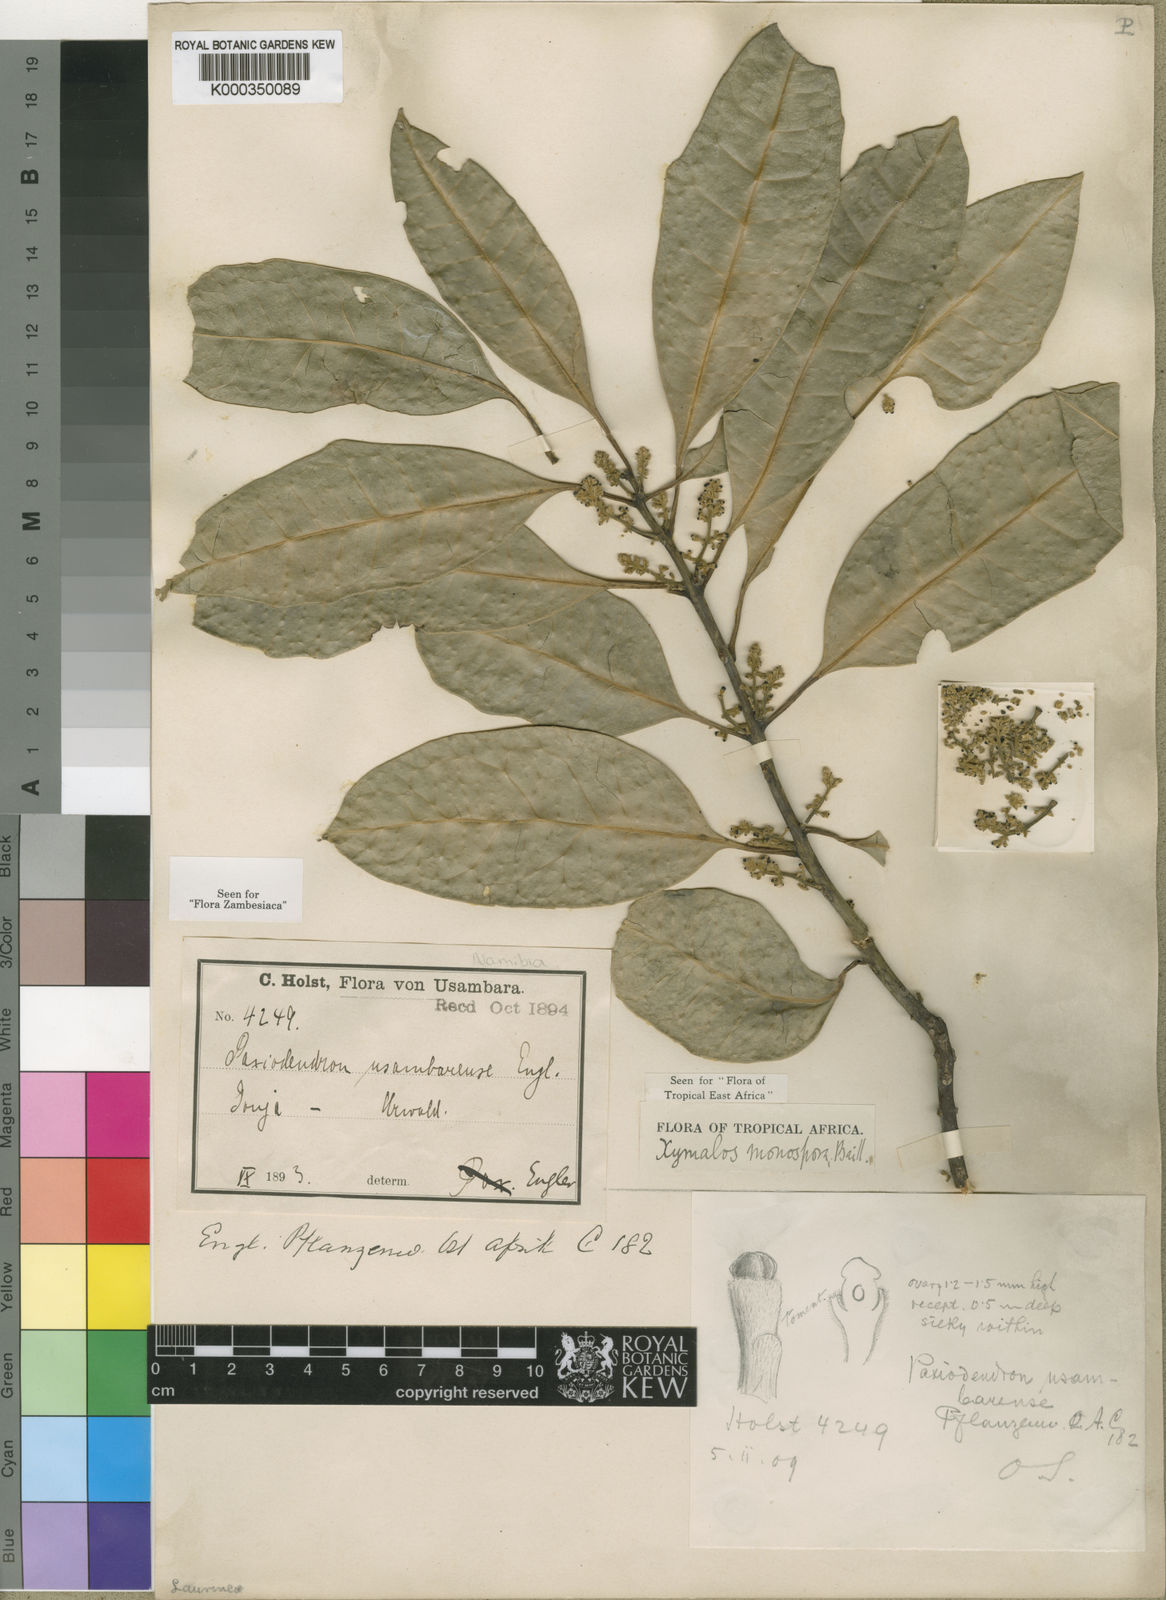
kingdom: Plantae
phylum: Tracheophyta
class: Magnoliopsida
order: Laurales
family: Monimiaceae
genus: Xymalos
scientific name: Xymalos monospora
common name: Lemonwood
